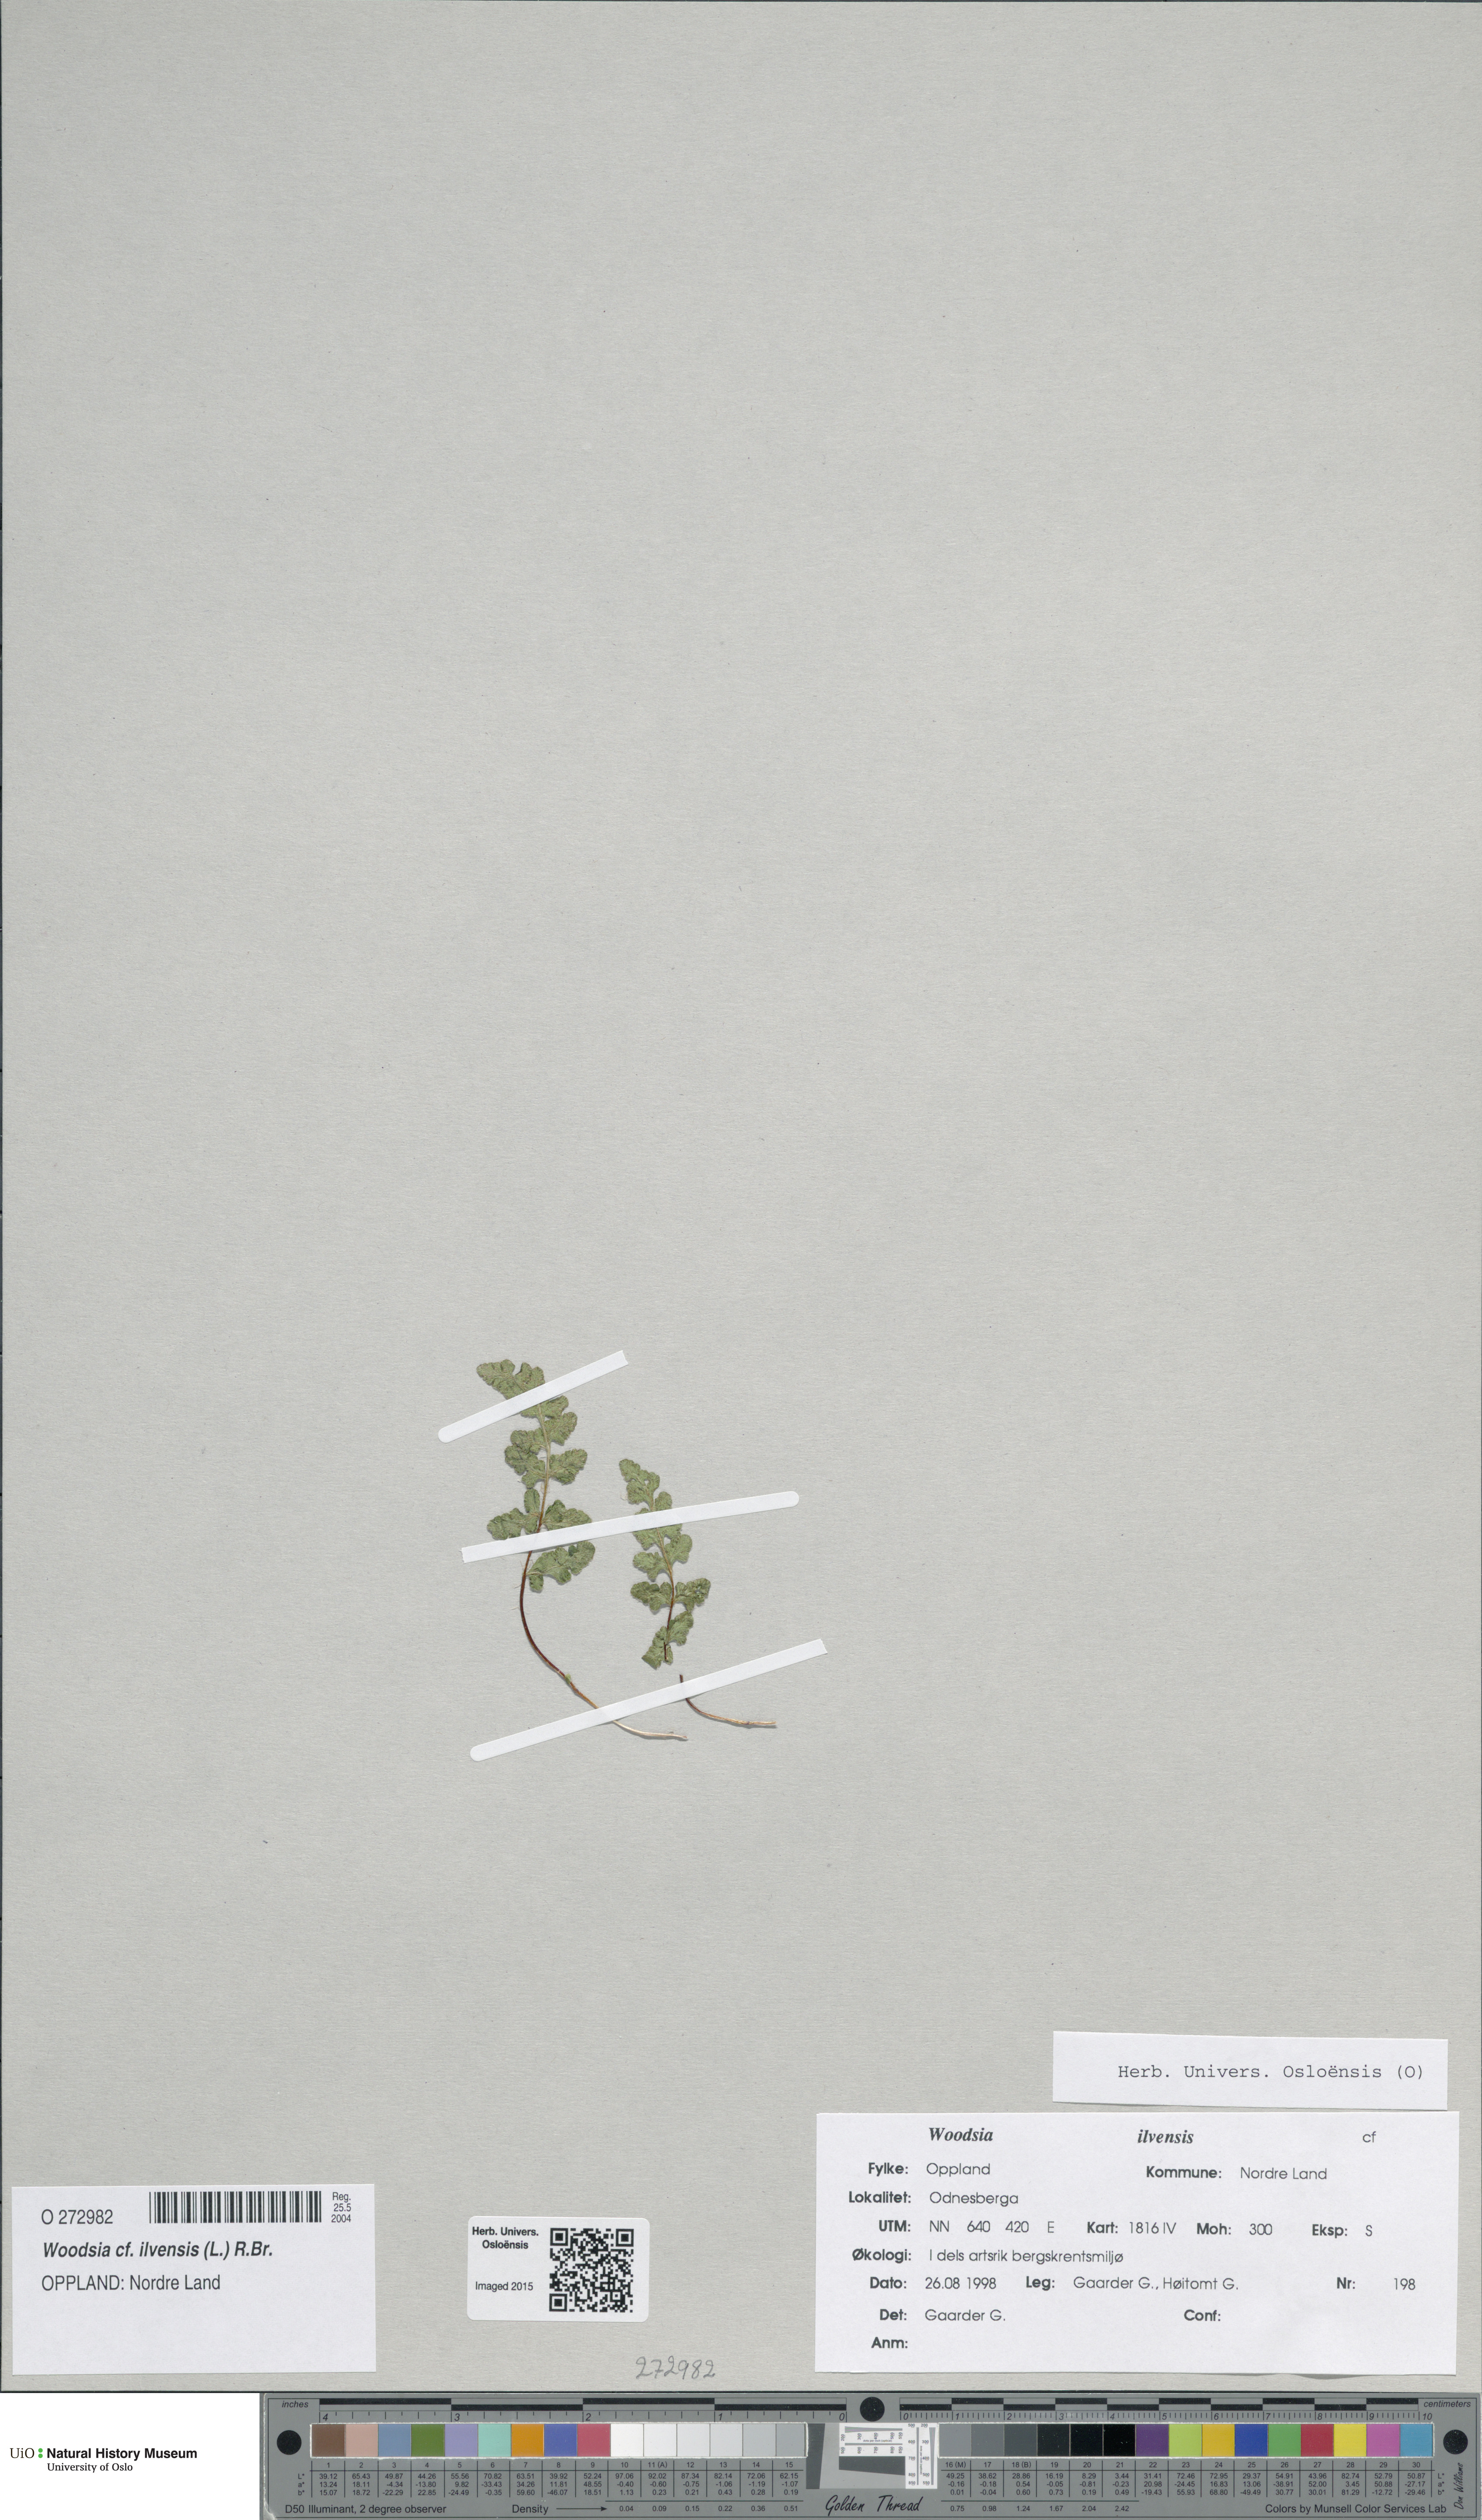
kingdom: Plantae
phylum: Tracheophyta
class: Polypodiopsida
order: Polypodiales
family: Woodsiaceae
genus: Woodsia
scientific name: Woodsia ilvensis
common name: Fragrant woodsia
